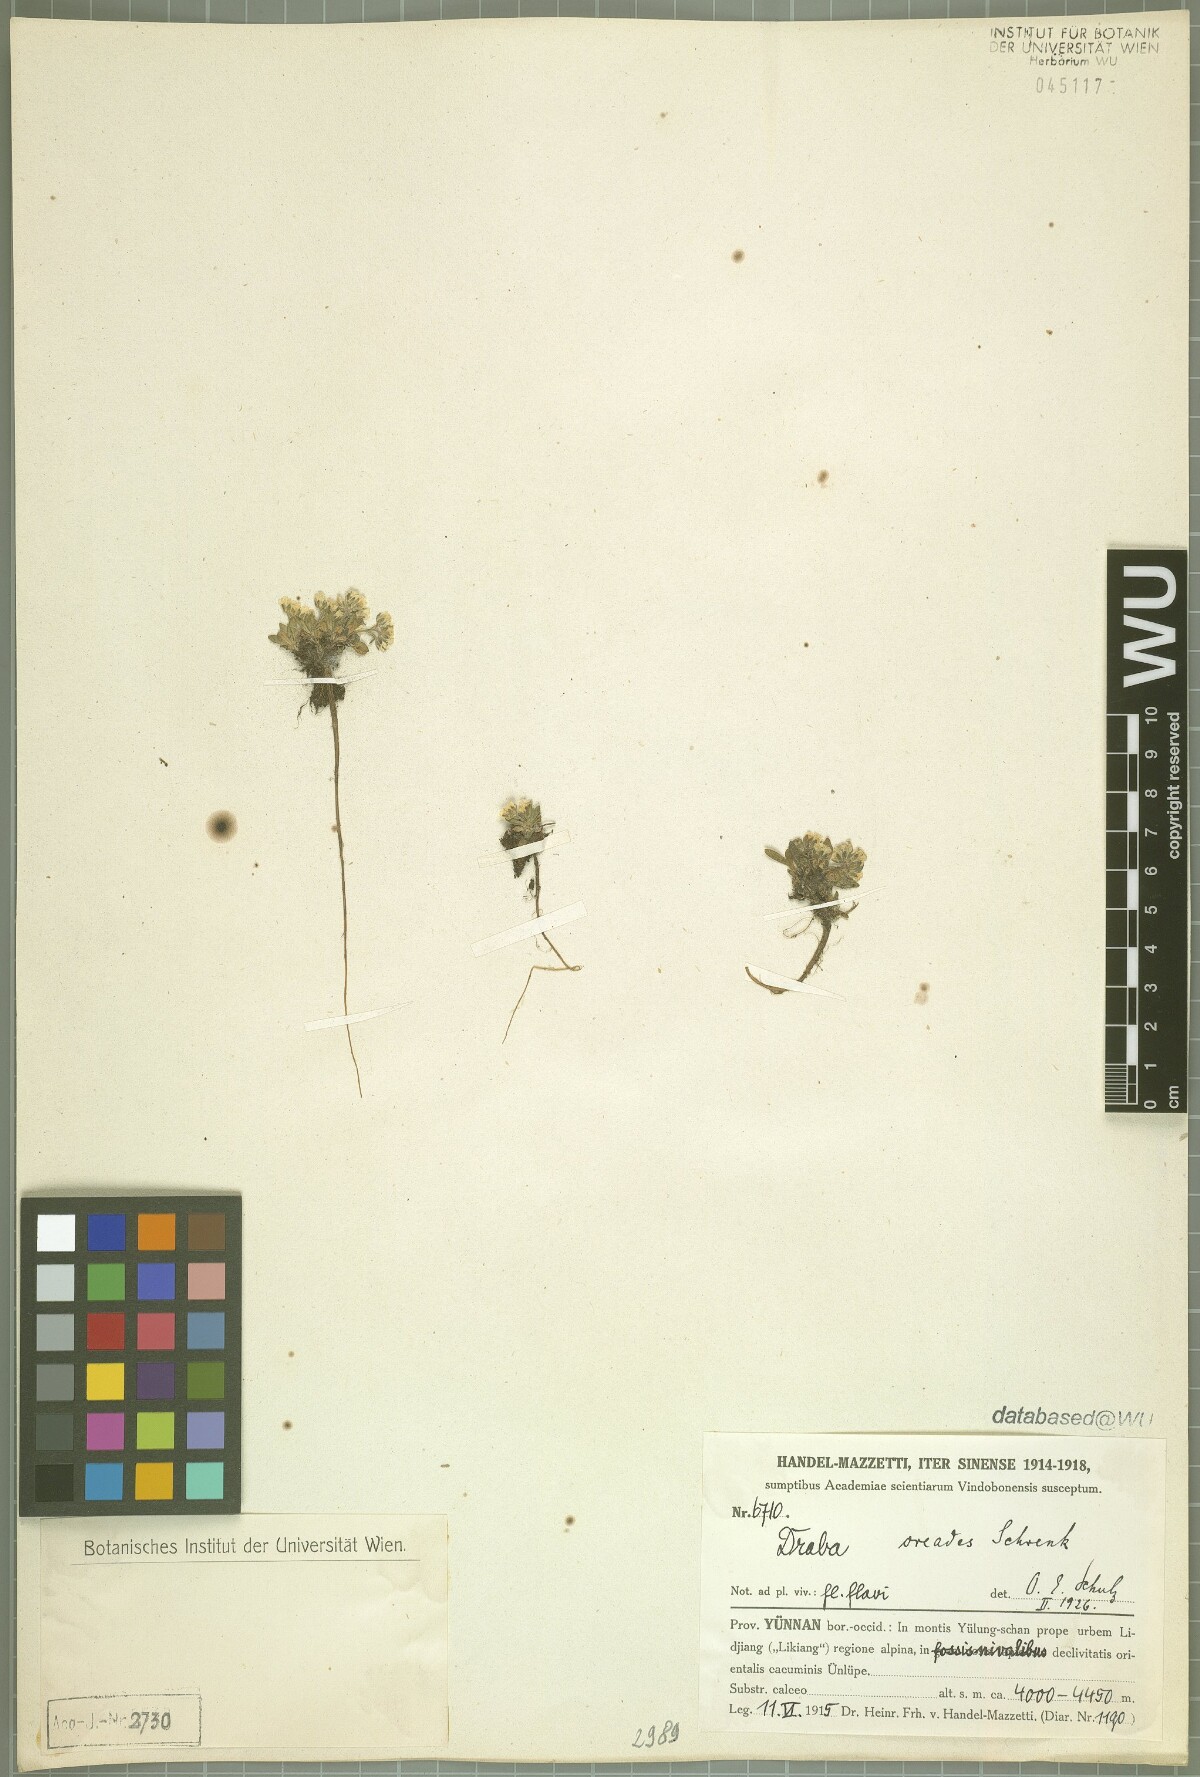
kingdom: Plantae
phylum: Tracheophyta
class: Magnoliopsida
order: Brassicales
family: Brassicaceae
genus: Draba
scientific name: Draba oreades
